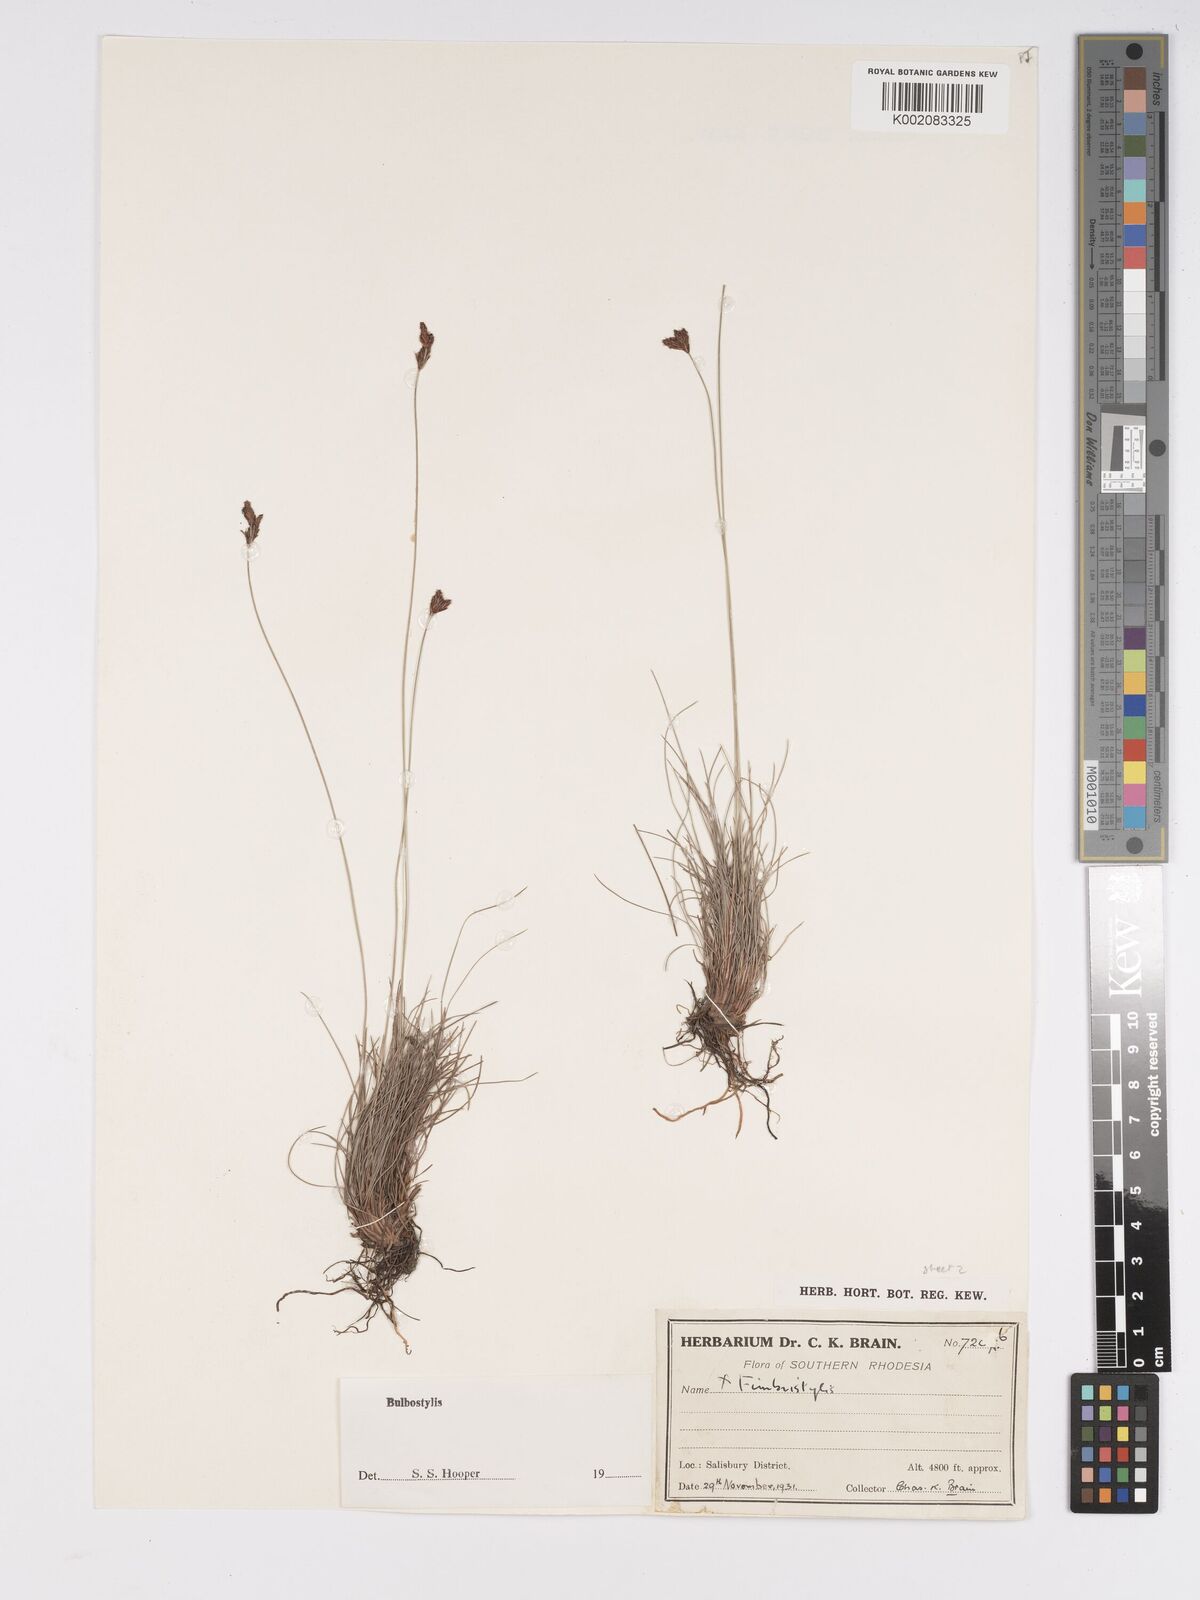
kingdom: Plantae
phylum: Tracheophyta
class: Liliopsida
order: Poales
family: Cyperaceae
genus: Bulbostylis
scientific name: Bulbostylis schoenoides
